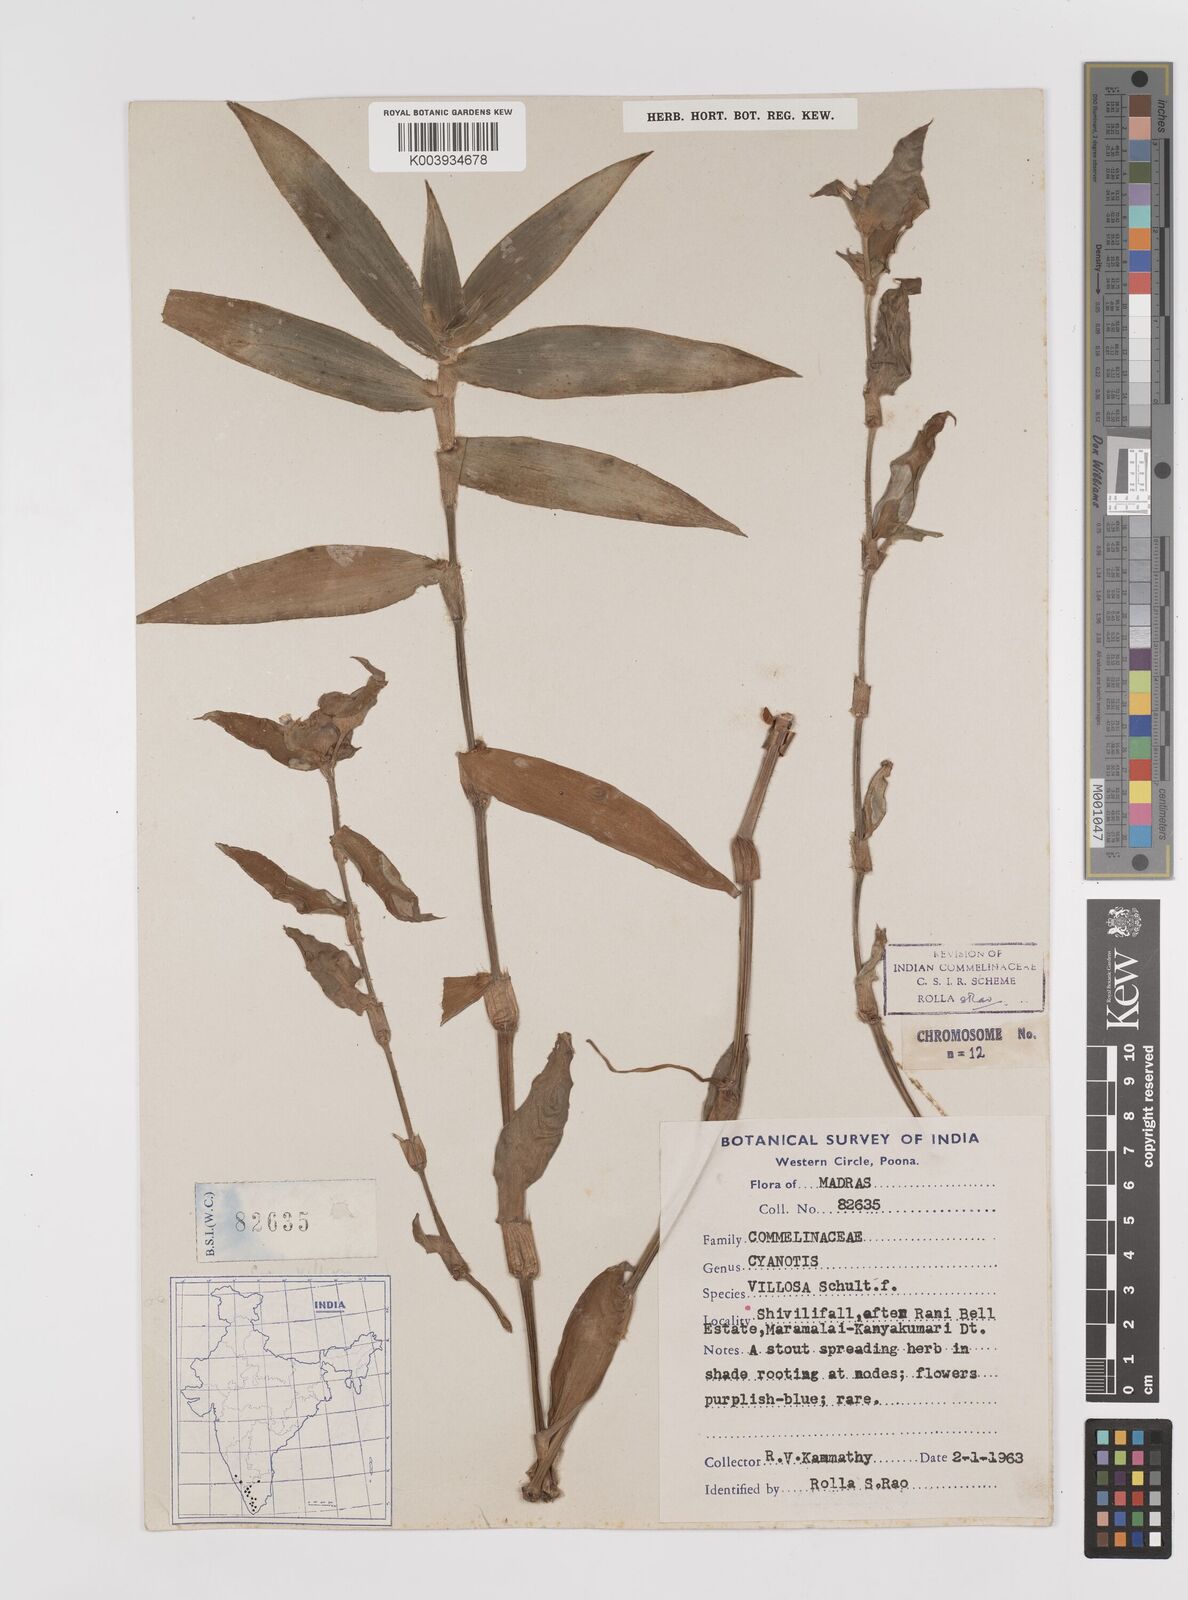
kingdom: Plantae
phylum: Tracheophyta
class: Liliopsida
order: Commelinales
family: Commelinaceae
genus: Cyanotis
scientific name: Cyanotis villosa
